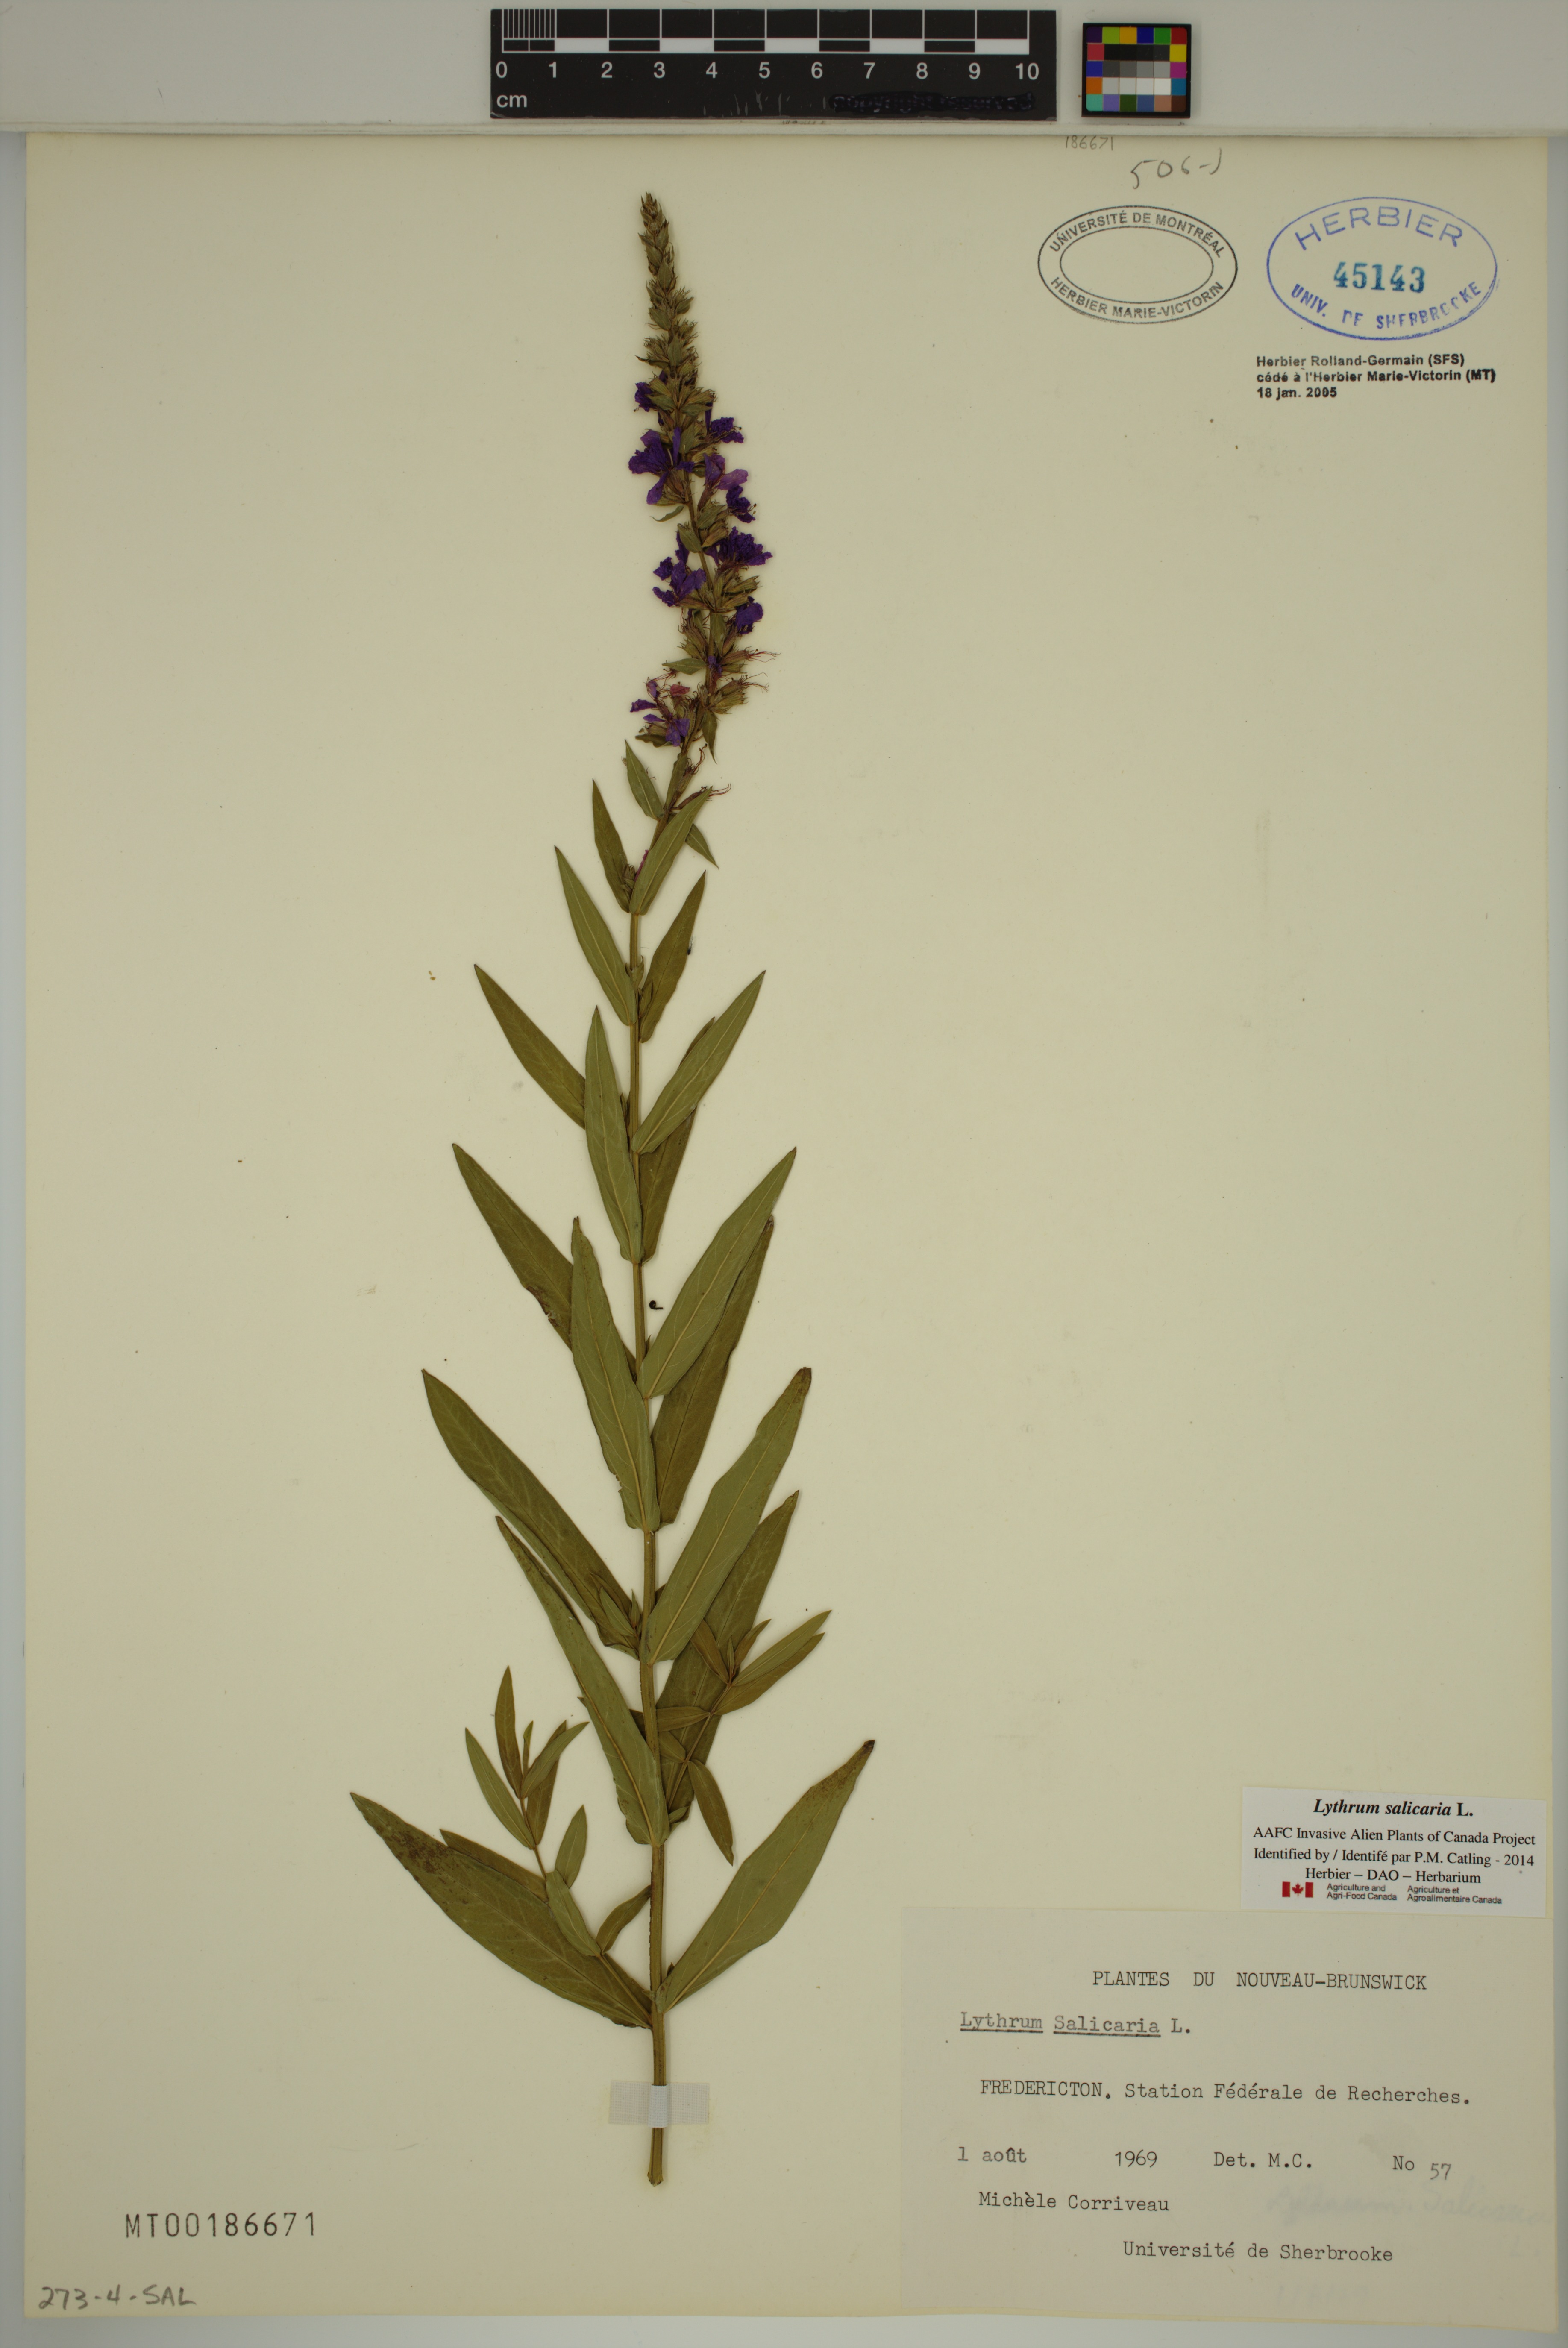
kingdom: Plantae
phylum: Tracheophyta
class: Magnoliopsida
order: Myrtales
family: Lythraceae
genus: Lythrum
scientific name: Lythrum salicaria
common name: Purple loosestrife
